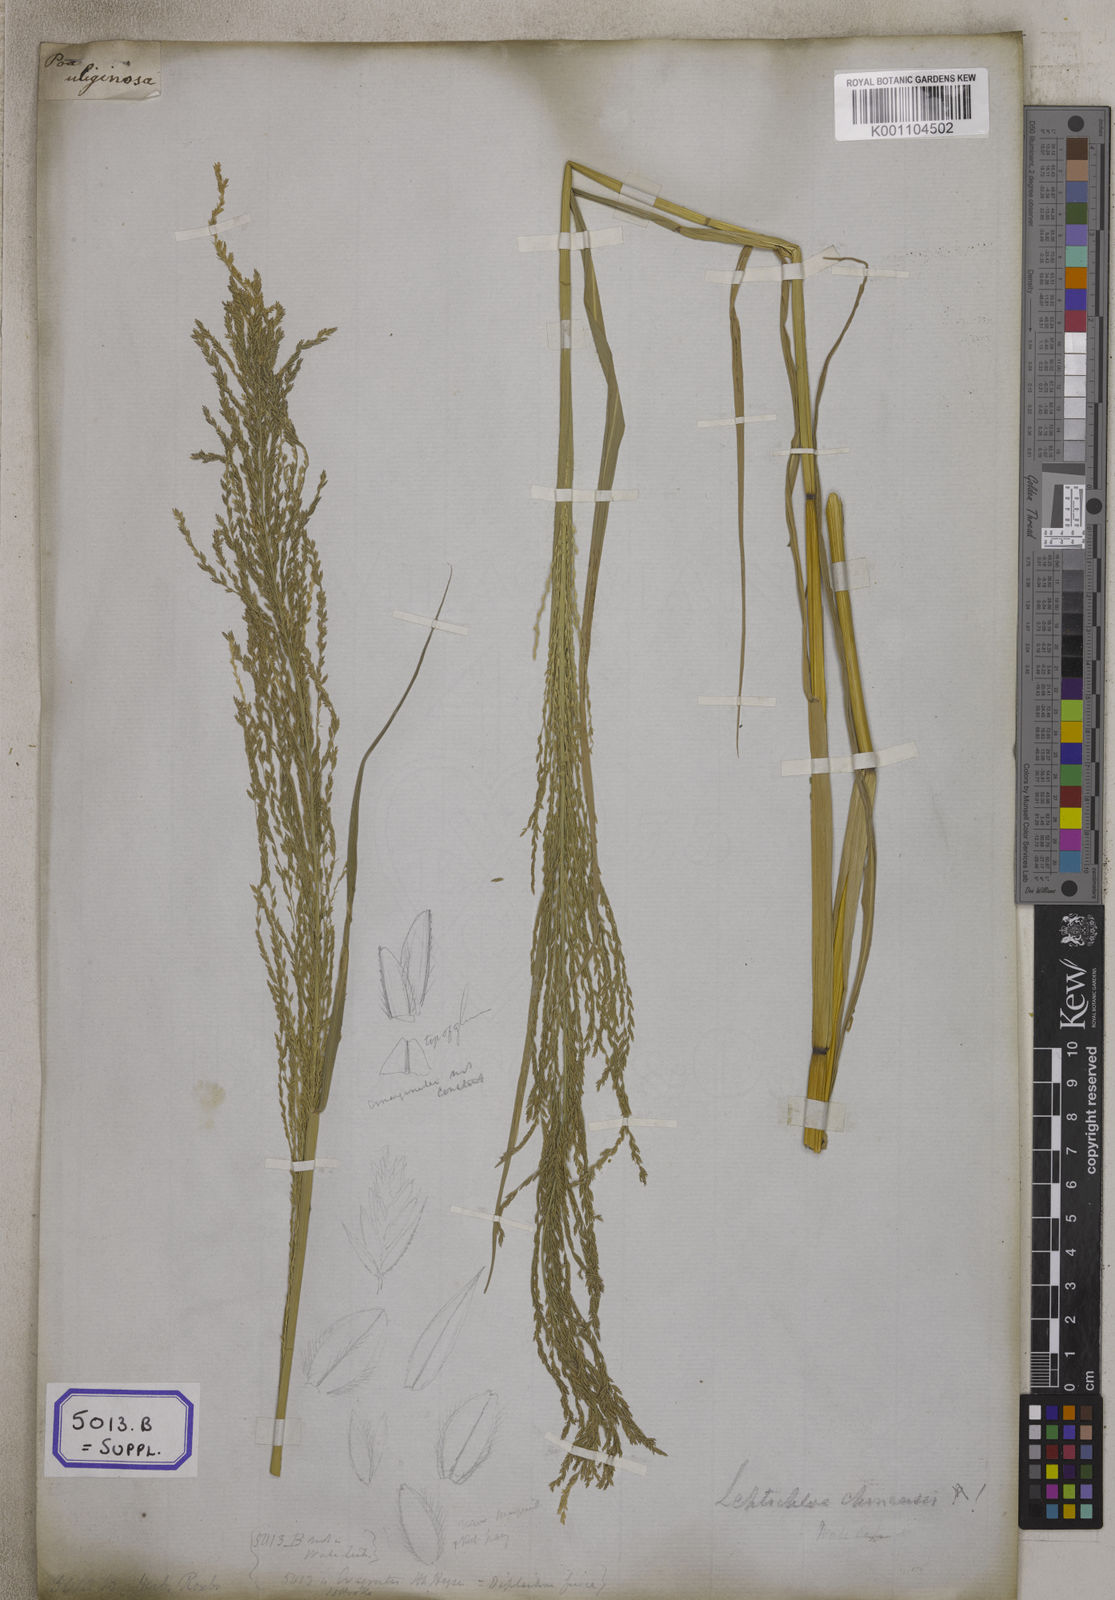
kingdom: Plantae
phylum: Tracheophyta
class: Liliopsida
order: Poales
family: Poaceae
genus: Eragrostis
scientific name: Eragrostis
